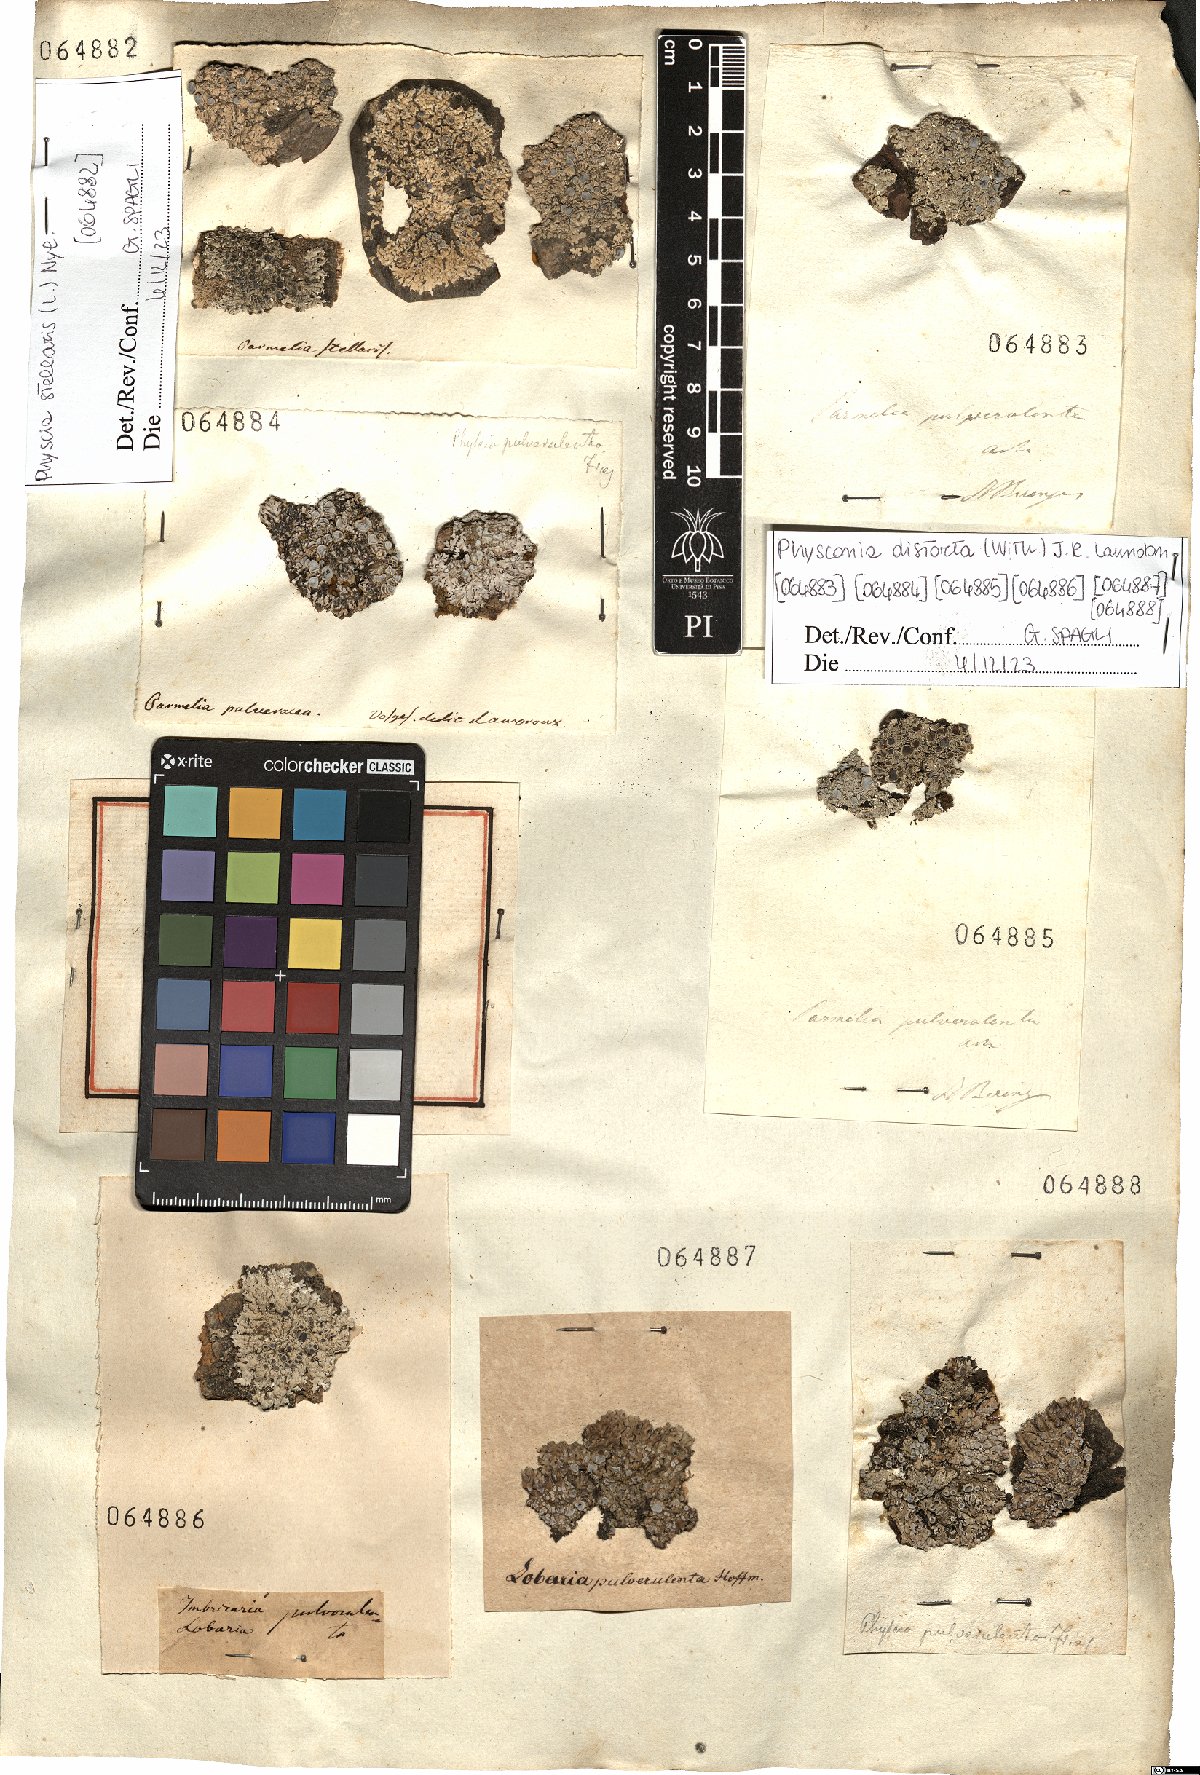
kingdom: Fungi
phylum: Ascomycota
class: Lecanoromycetes
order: Caliciales
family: Physciaceae
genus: Physconia
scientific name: Physconia distorta
